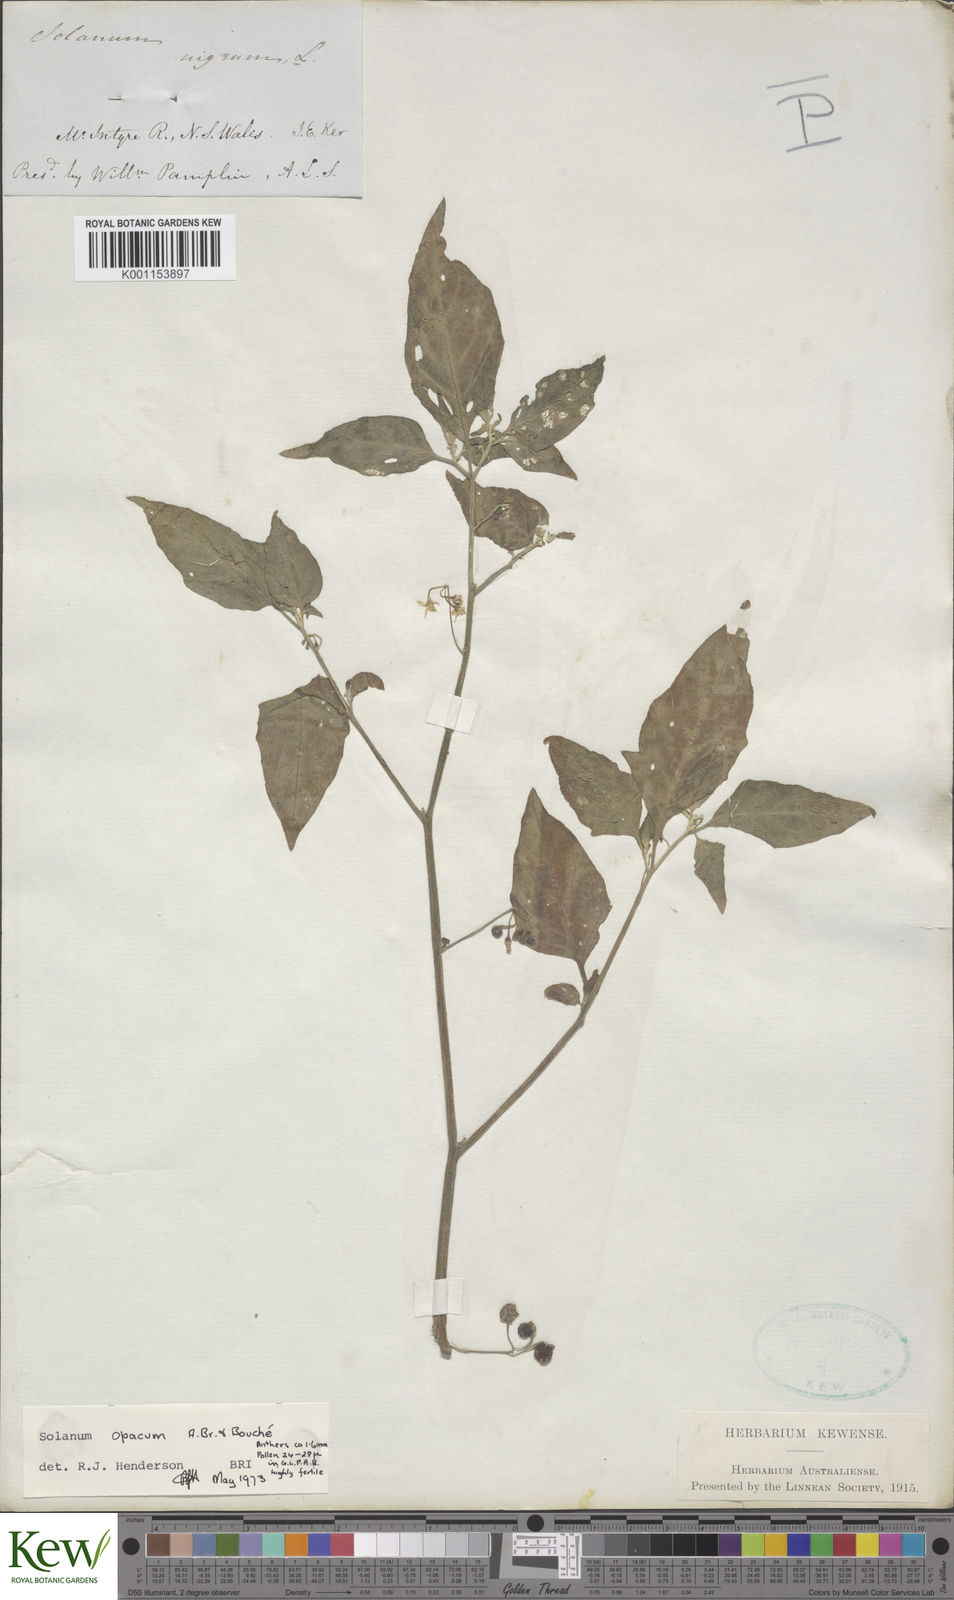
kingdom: Plantae
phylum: Tracheophyta
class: Magnoliopsida
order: Solanales
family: Solanaceae
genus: Solanum
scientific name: Solanum
